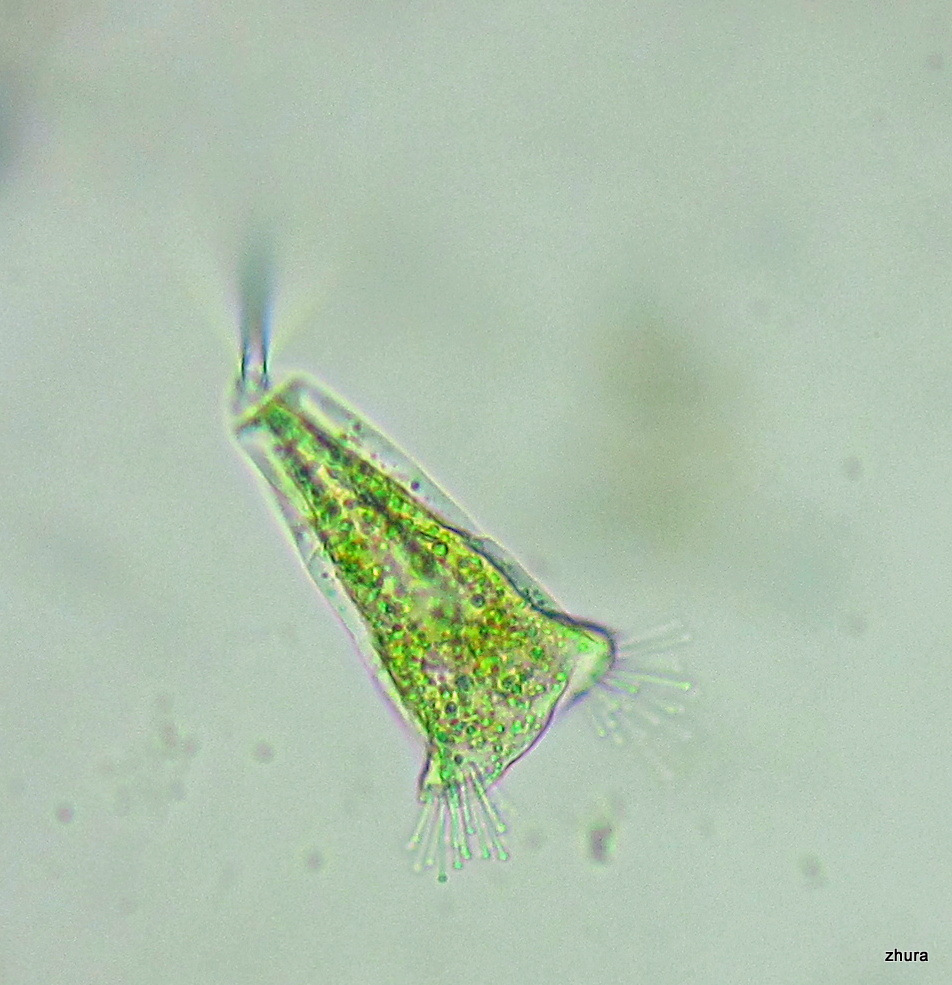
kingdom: Chromista
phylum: Ciliophora
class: Kinetofragminophora
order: Suctorida
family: Acinetidae
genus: Acineta
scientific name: Acineta tuberosa
